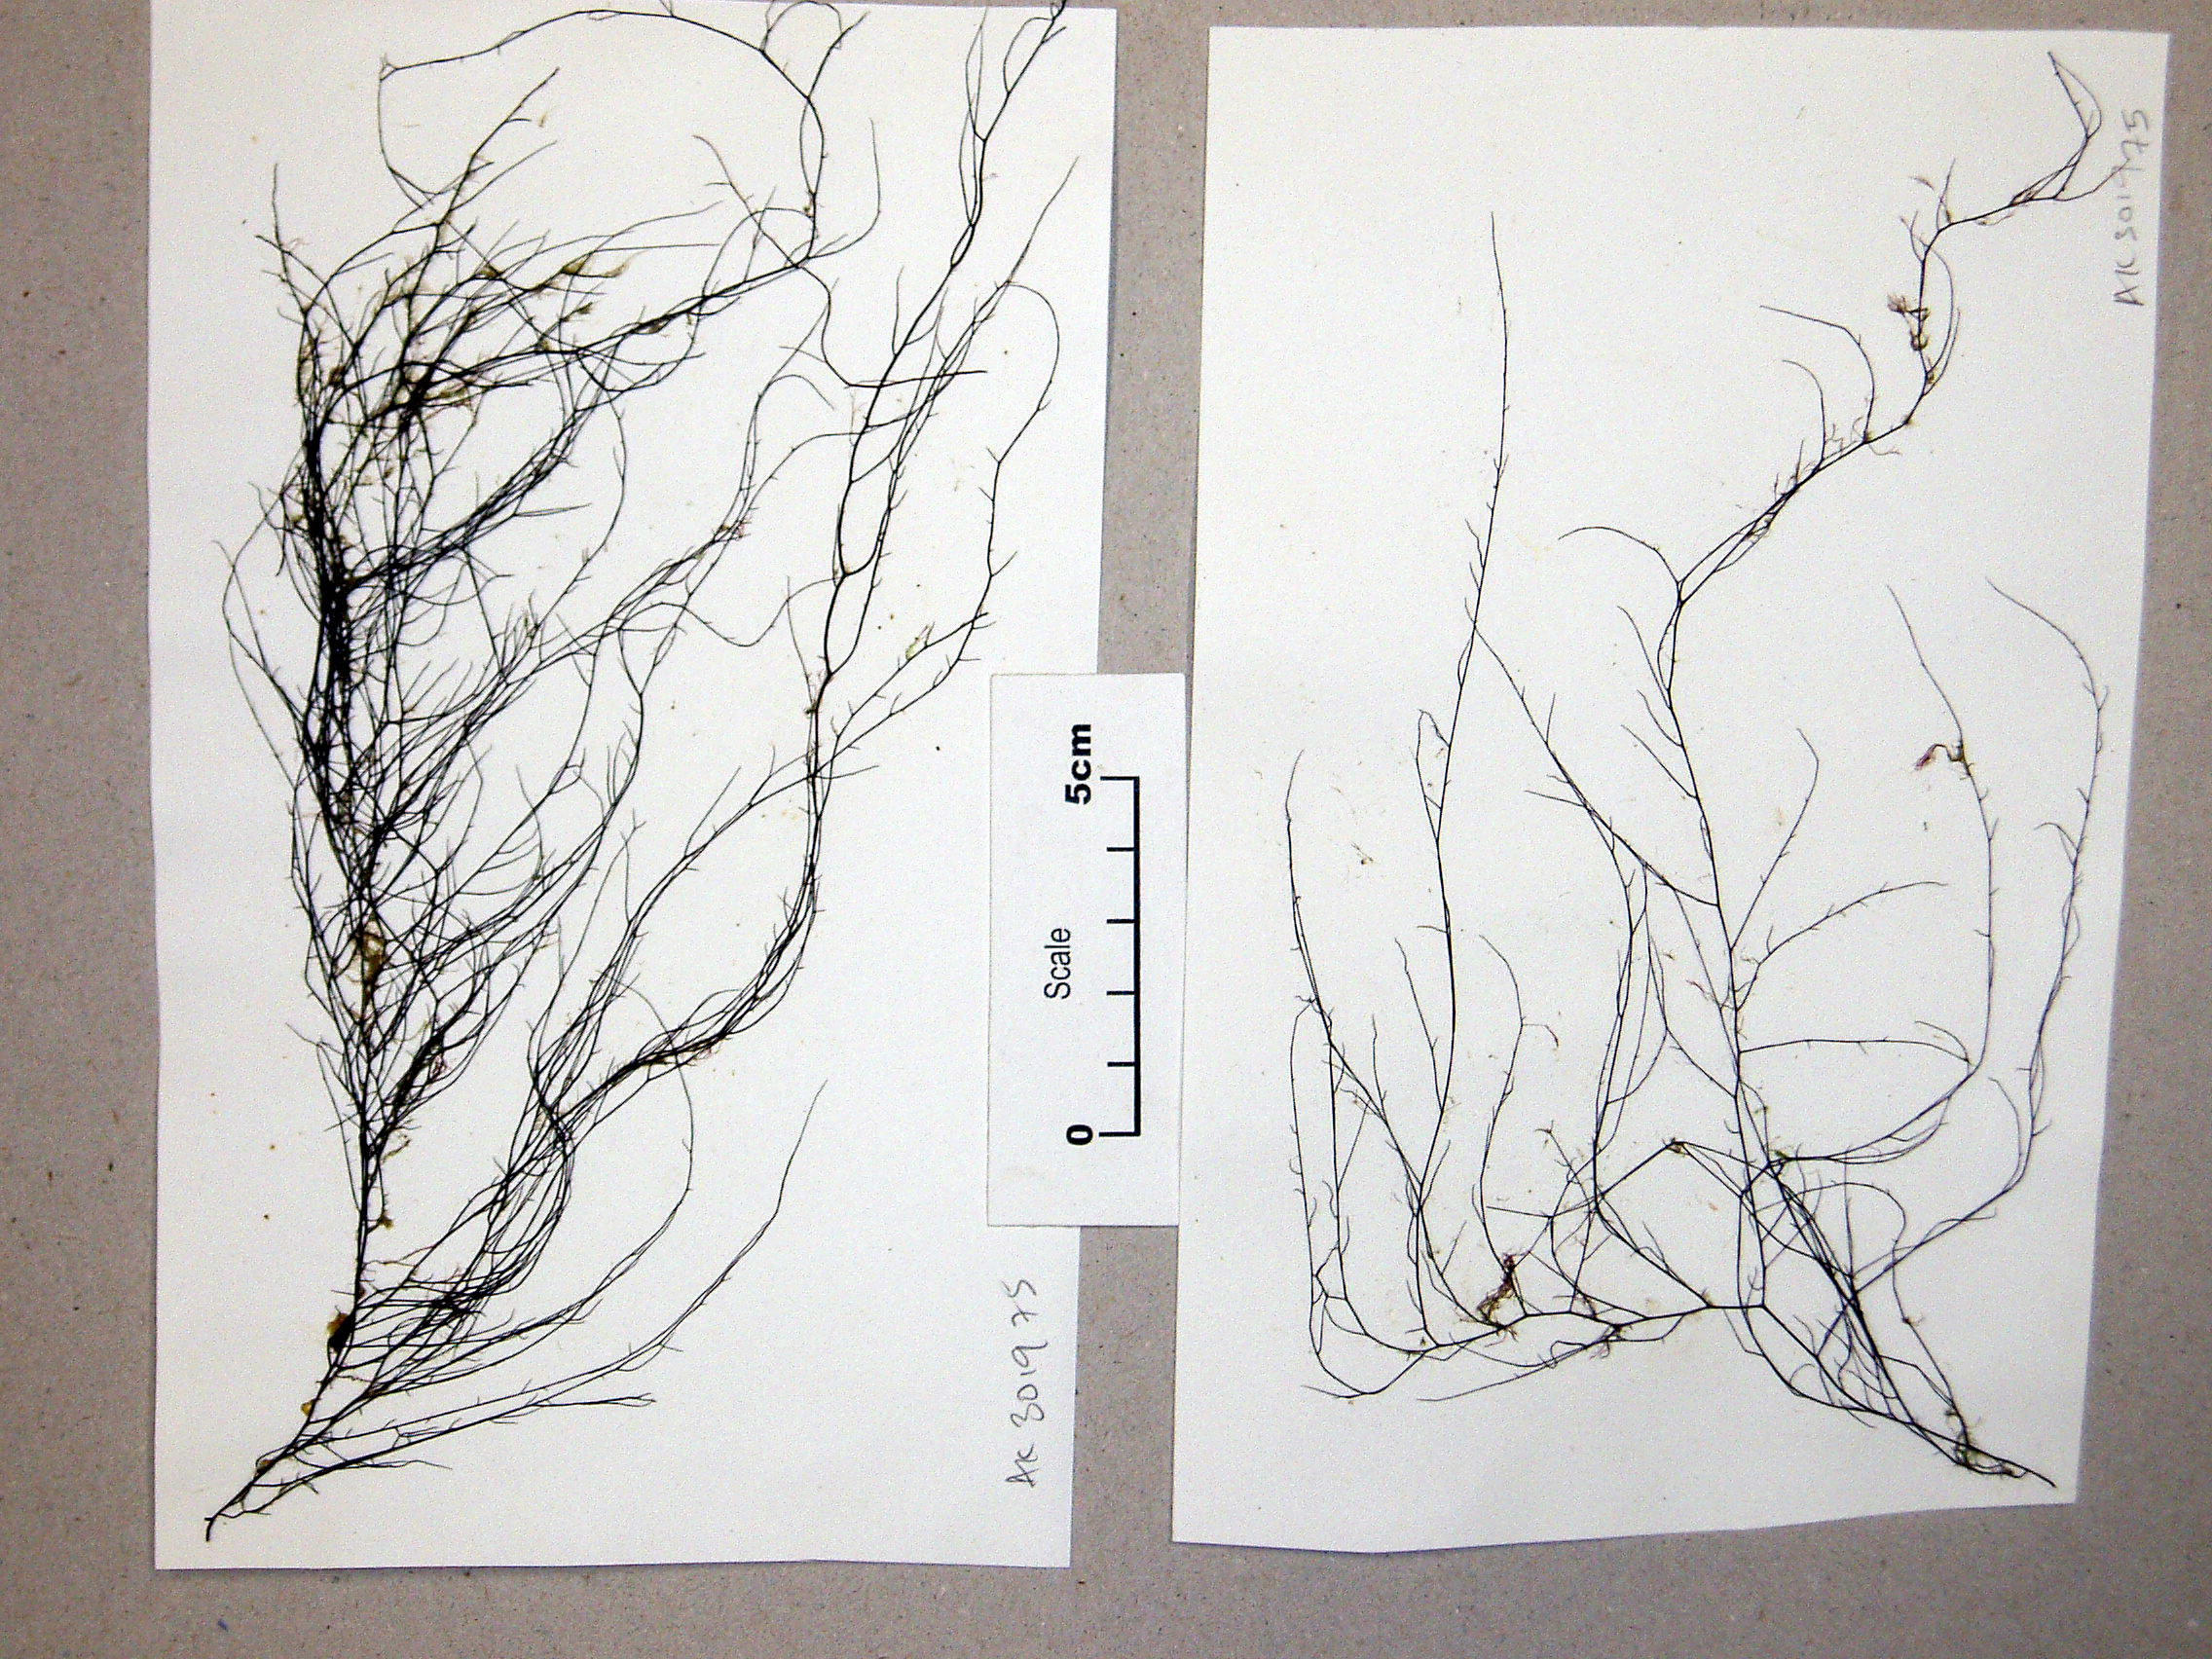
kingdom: Plantae
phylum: Rhodophyta
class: Florideophyceae
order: Gracilariales
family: Gracilariaceae
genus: Gracilaria
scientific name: Gracilaria
